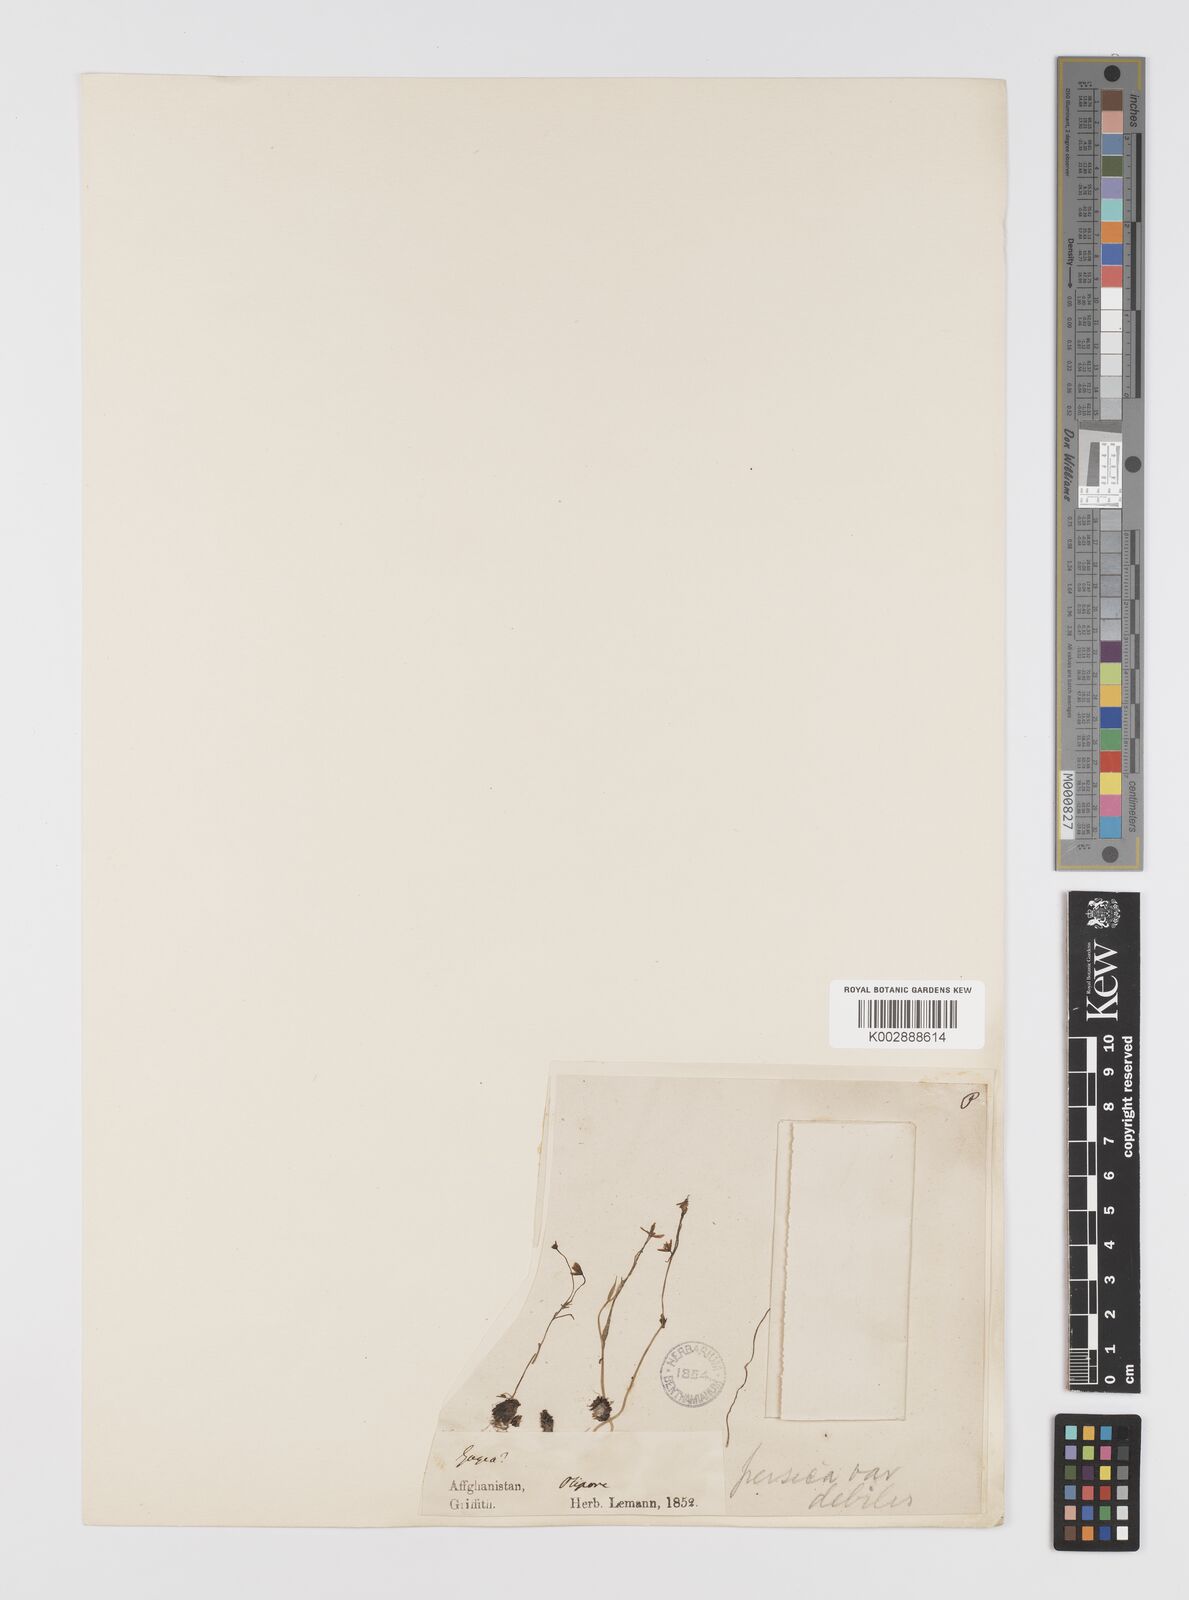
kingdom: Plantae
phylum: Tracheophyta
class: Liliopsida
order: Liliales
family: Liliaceae
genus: Gagea
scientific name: Gagea olgae
